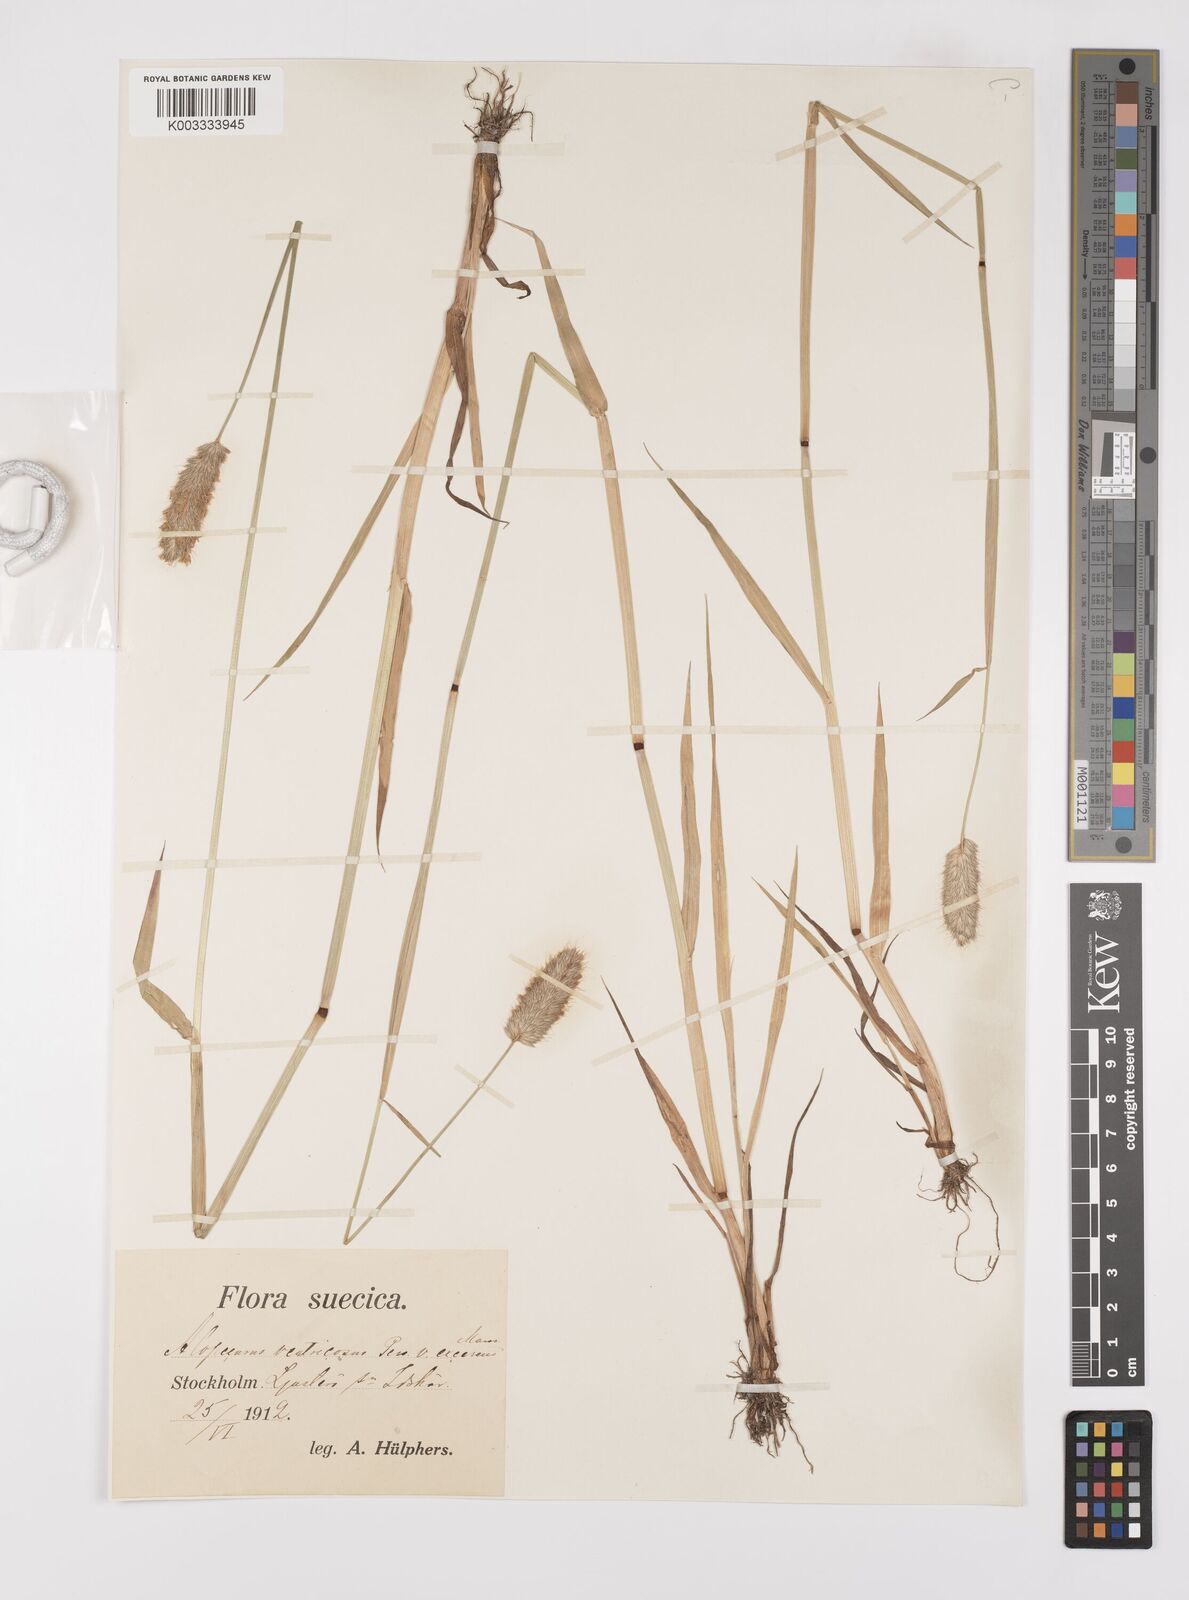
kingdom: Plantae
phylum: Tracheophyta
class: Liliopsida
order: Poales
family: Poaceae
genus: Alopecurus
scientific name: Alopecurus arundinaceus
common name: Creeping meadow foxtail
